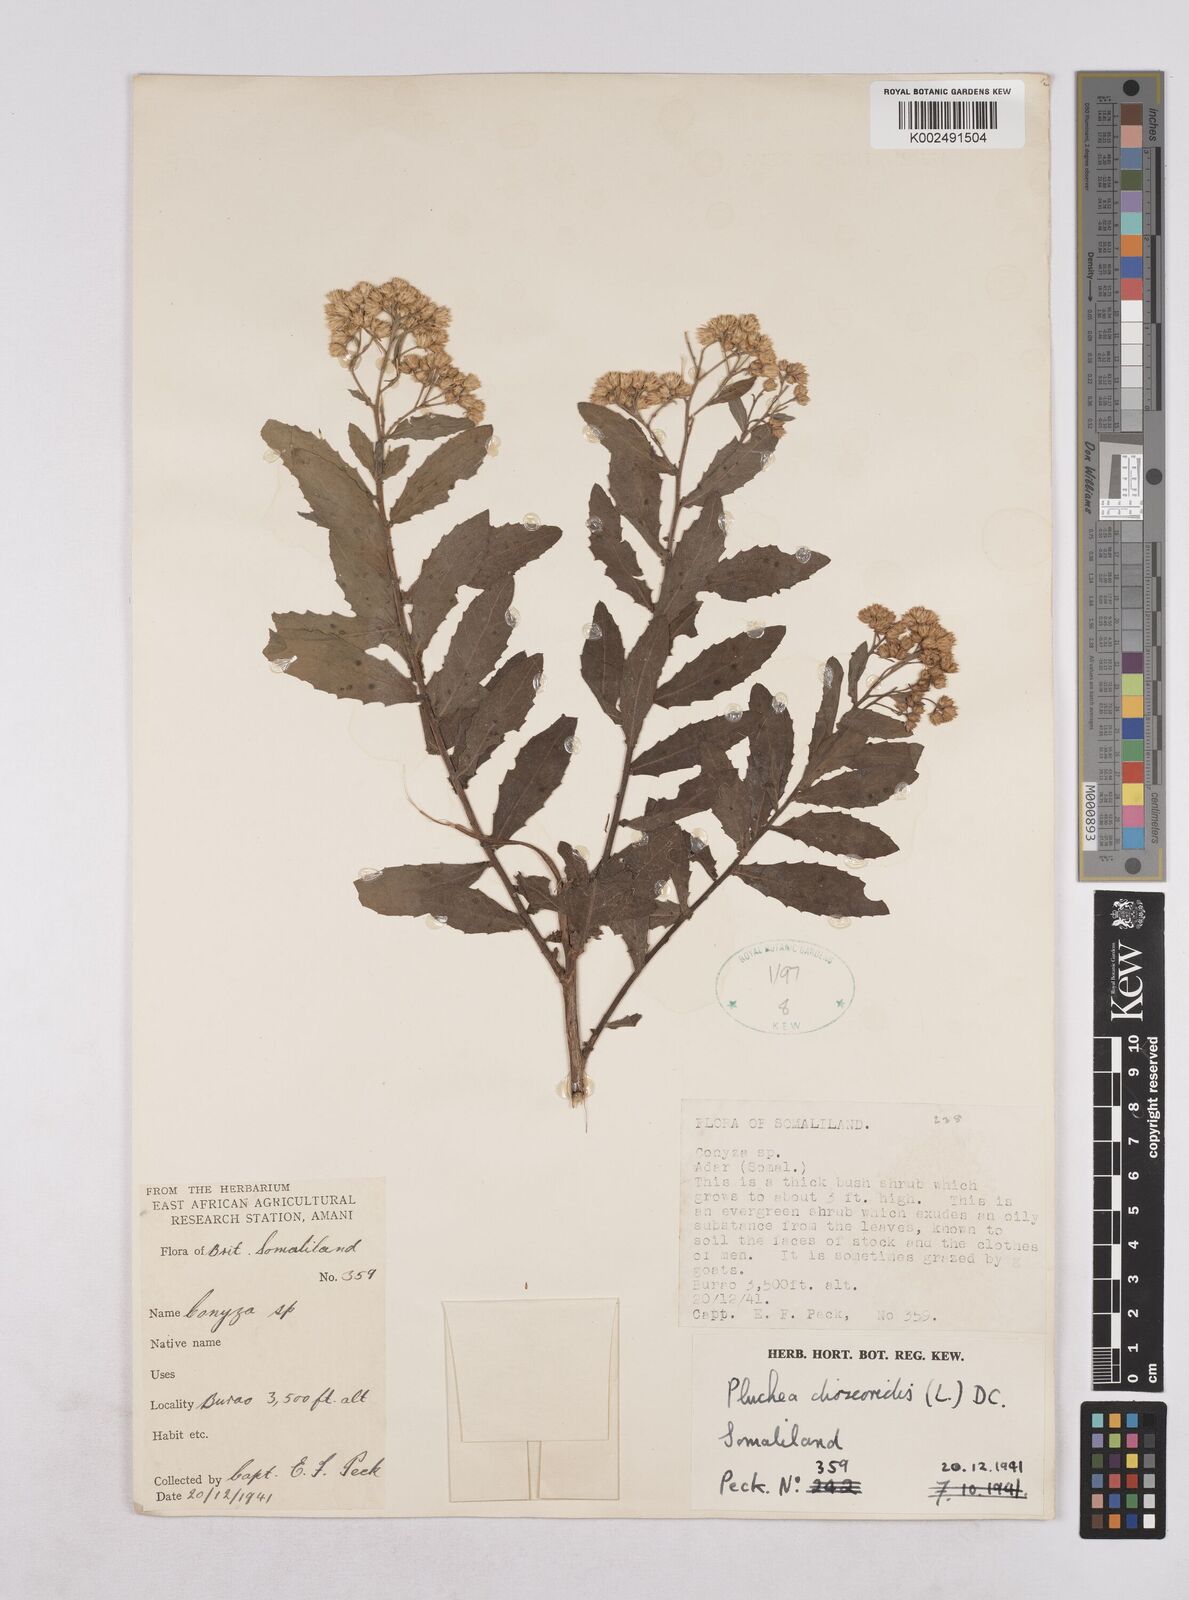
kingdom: Plantae
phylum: Tracheophyta
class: Magnoliopsida
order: Asterales
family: Asteraceae
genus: Pluchea
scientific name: Pluchea dioscoridis
